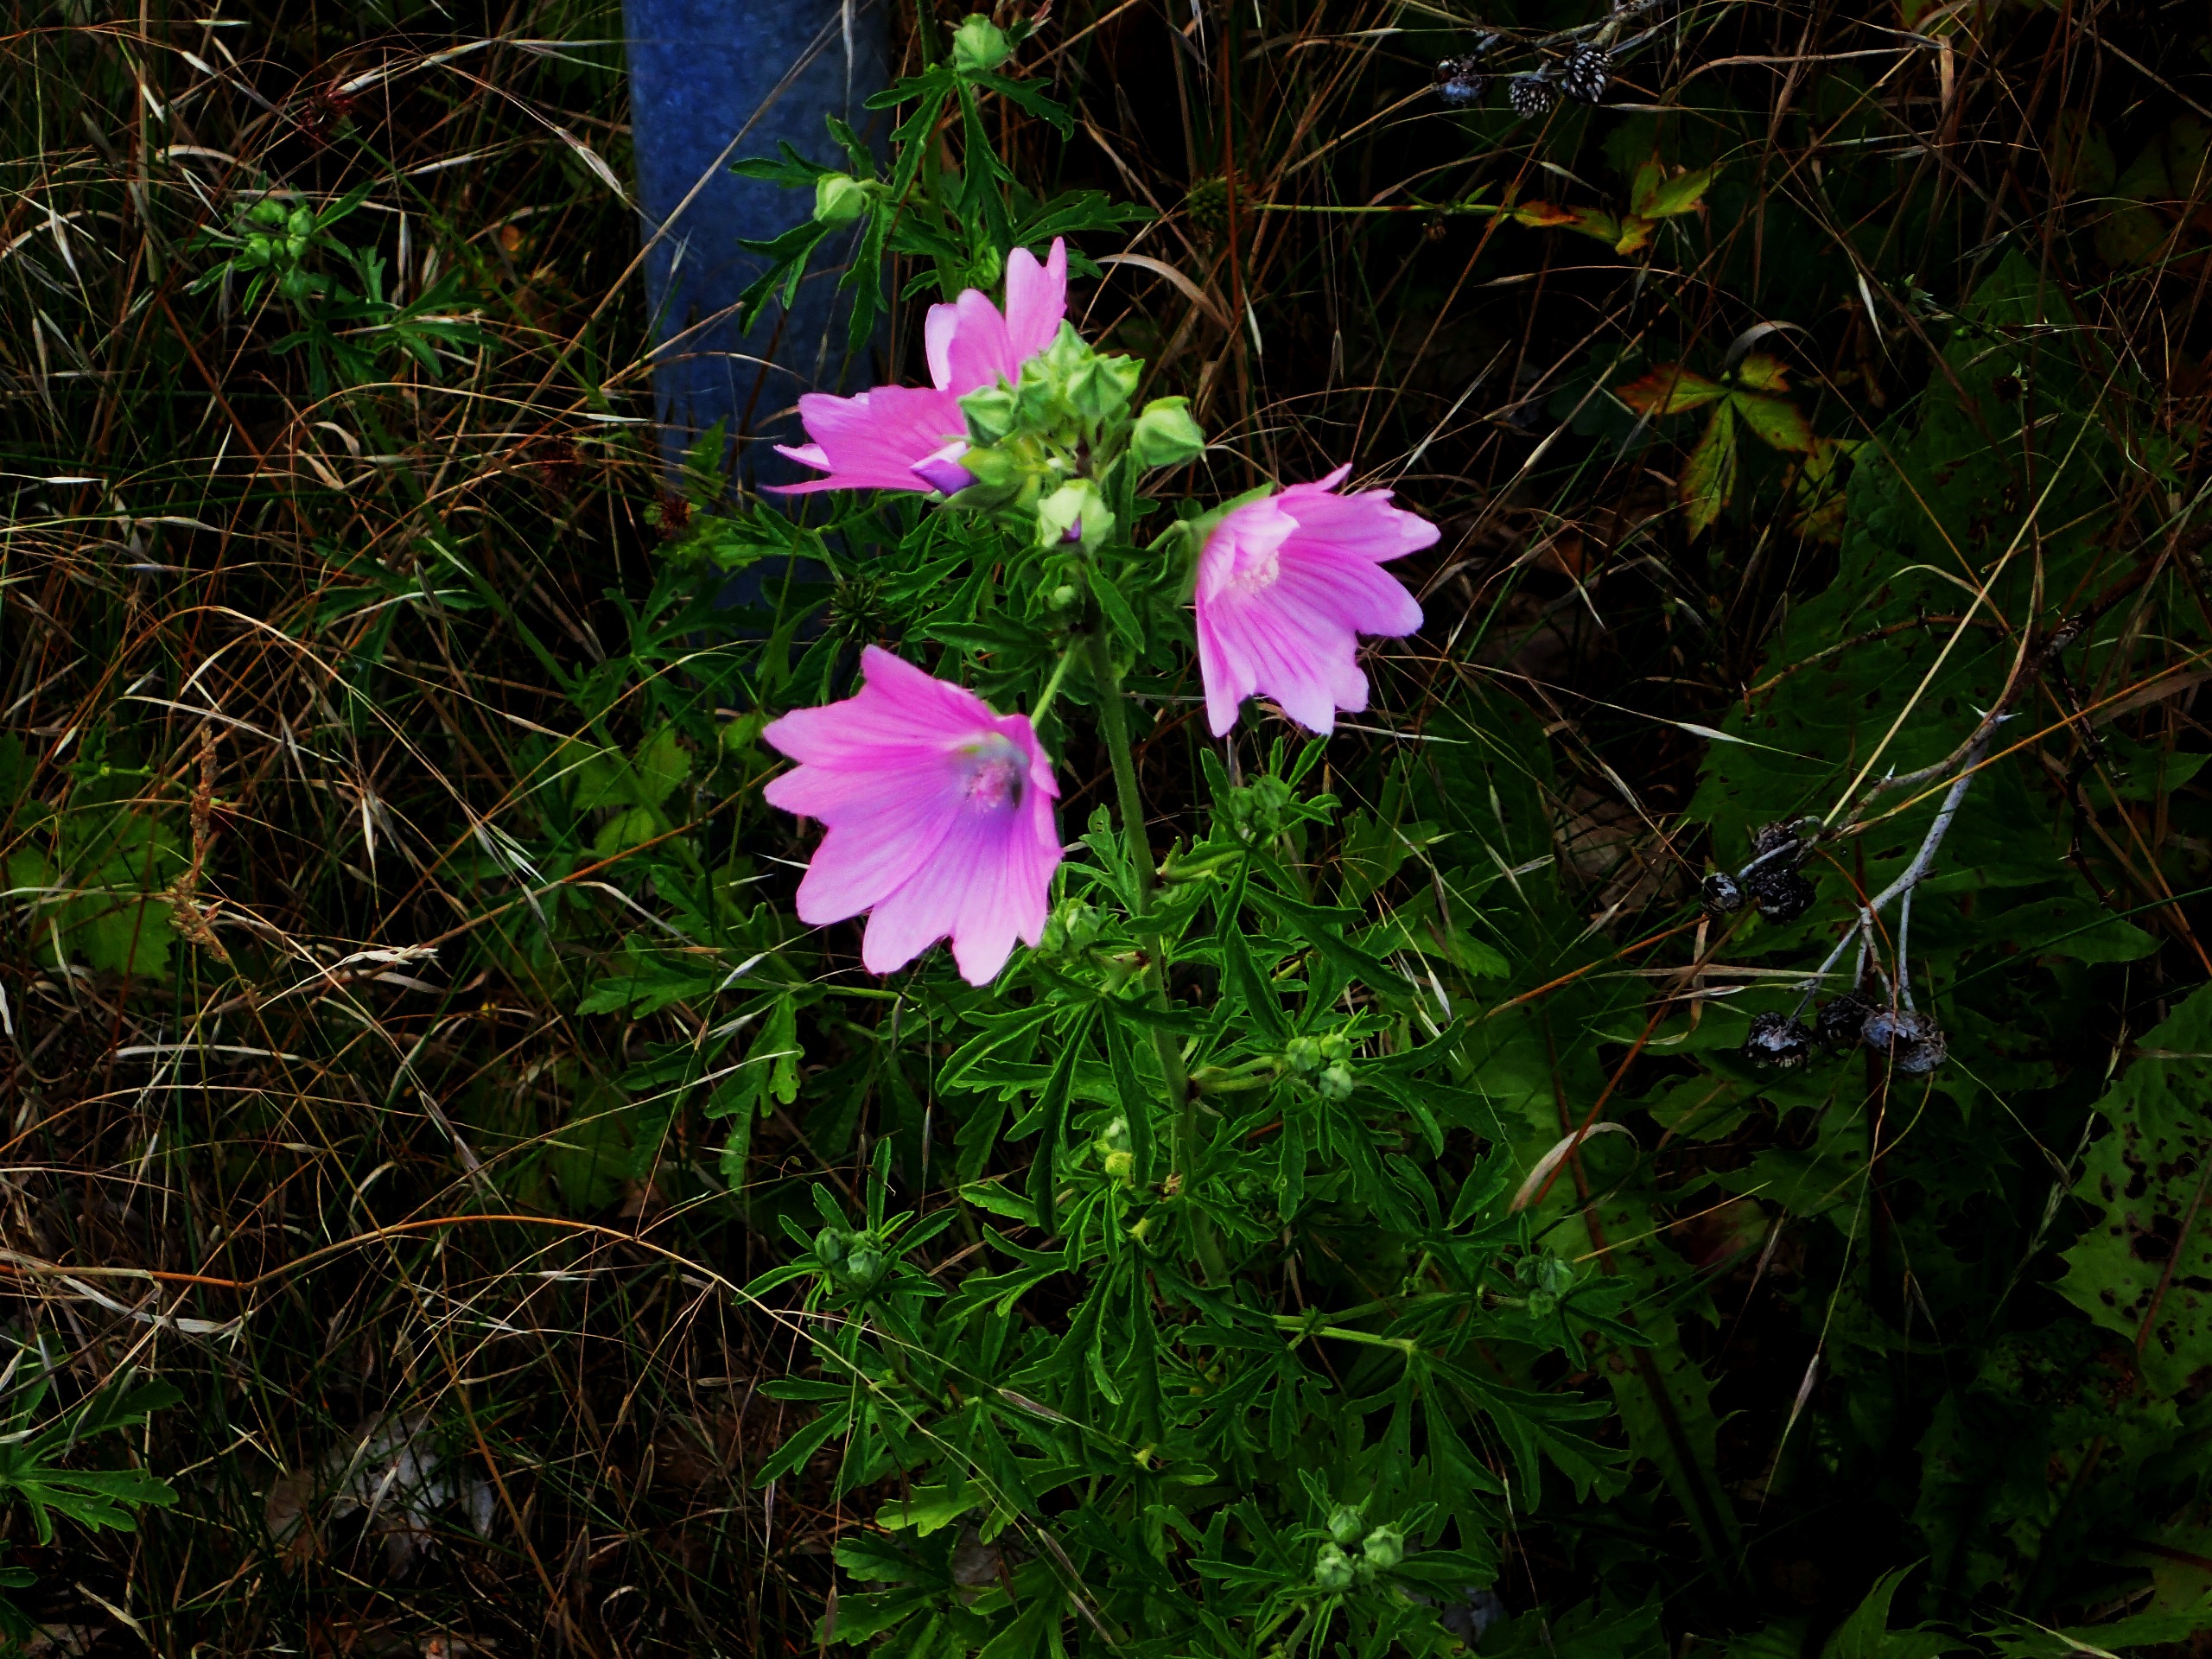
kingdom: Plantae
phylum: Tracheophyta
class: Magnoliopsida
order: Malvales
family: Malvaceae
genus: Malva
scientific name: Malva alcea
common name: Rosen-katost
